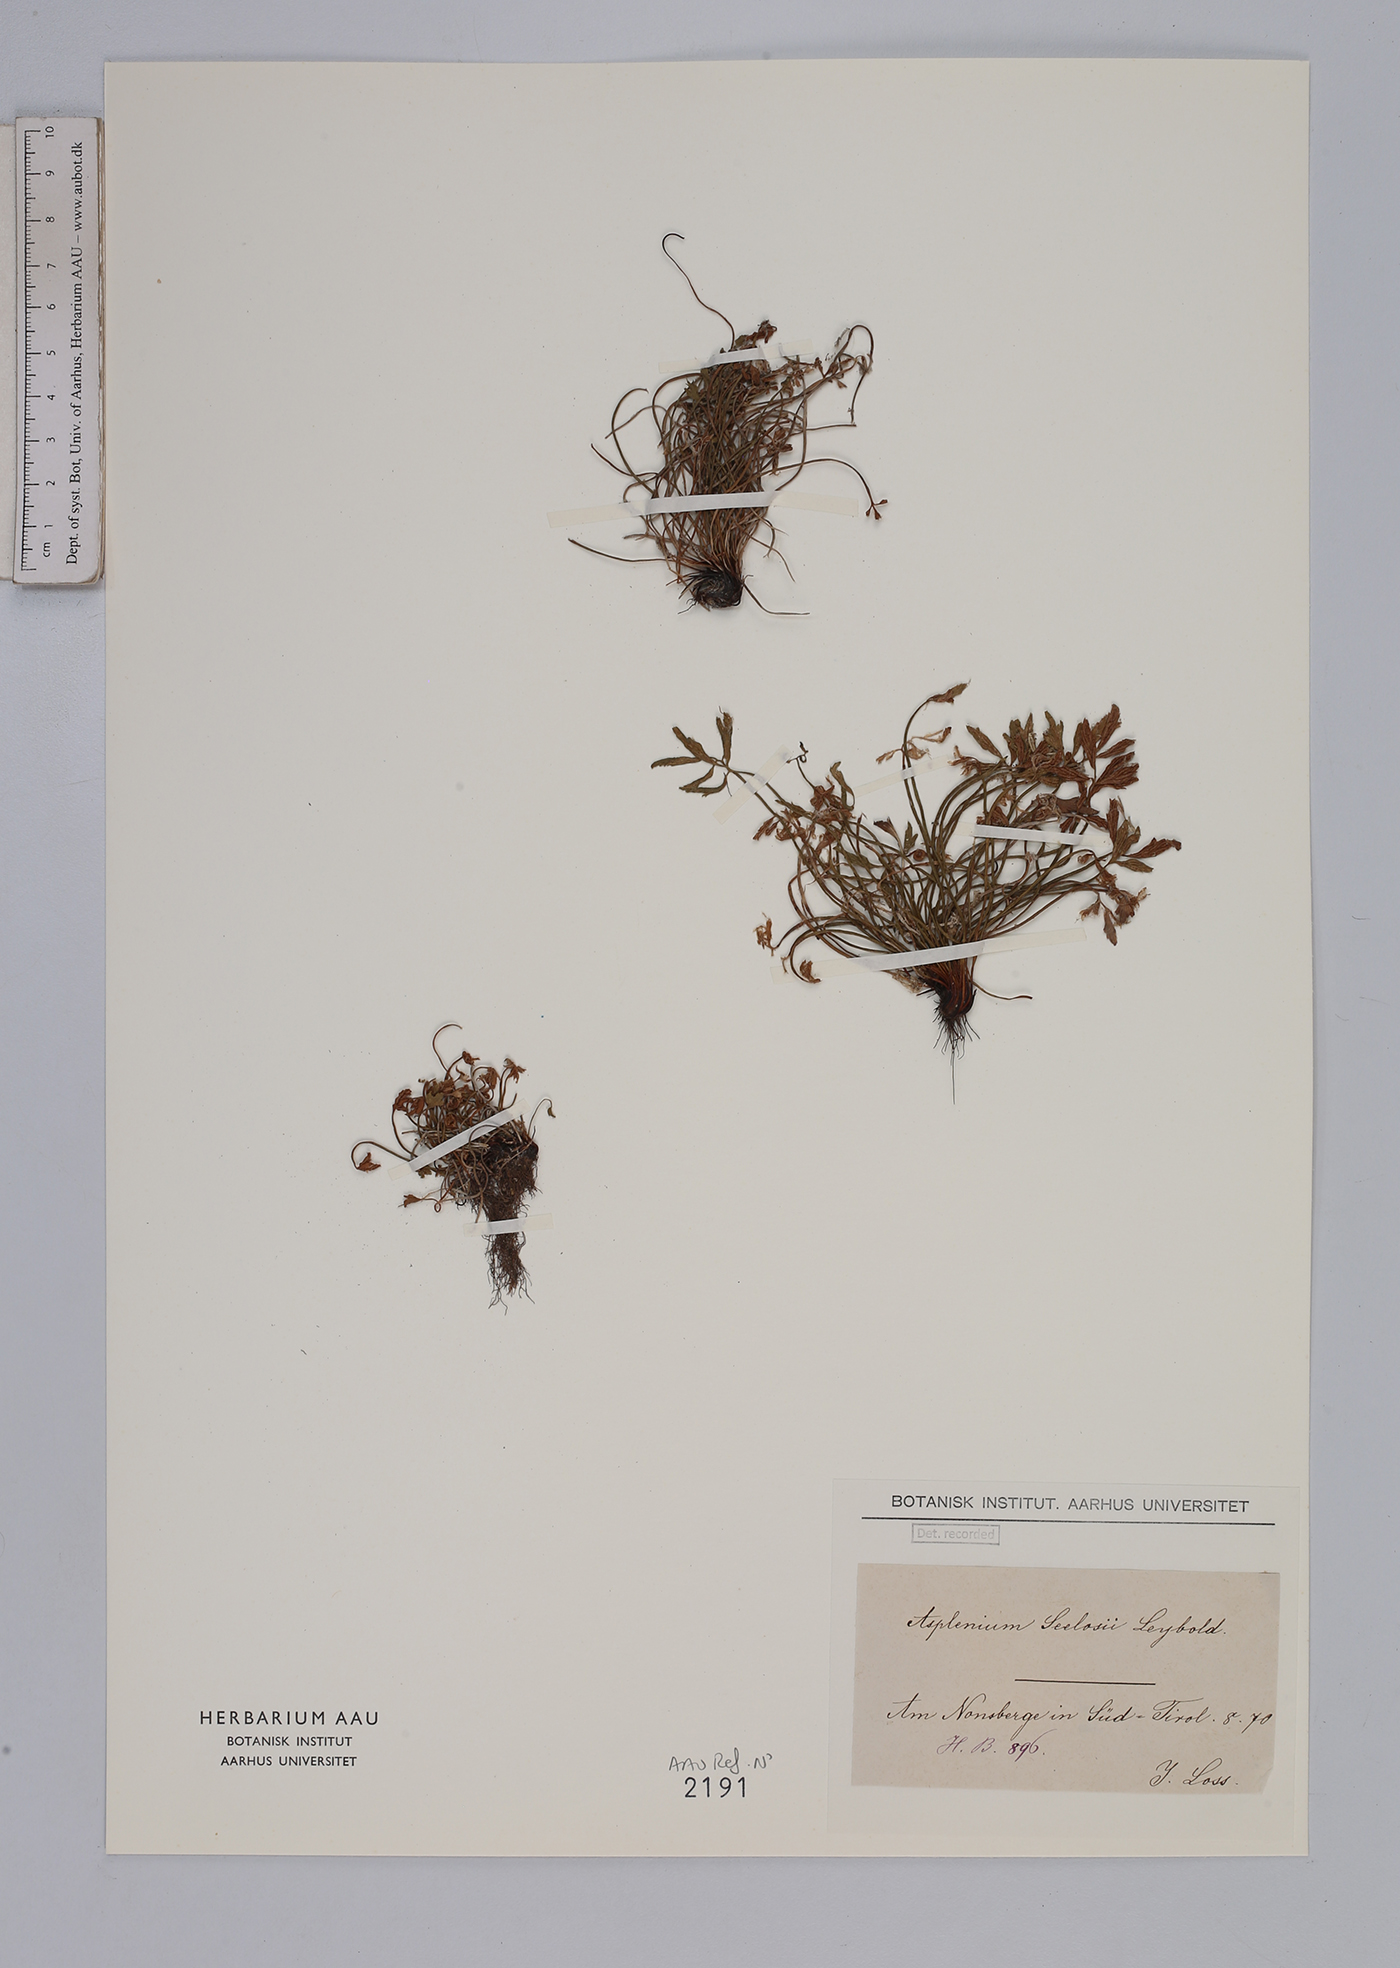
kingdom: Plantae
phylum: Tracheophyta
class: Polypodiopsida
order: Polypodiales
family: Aspleniaceae
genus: Asplenium
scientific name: Asplenium seelosii
